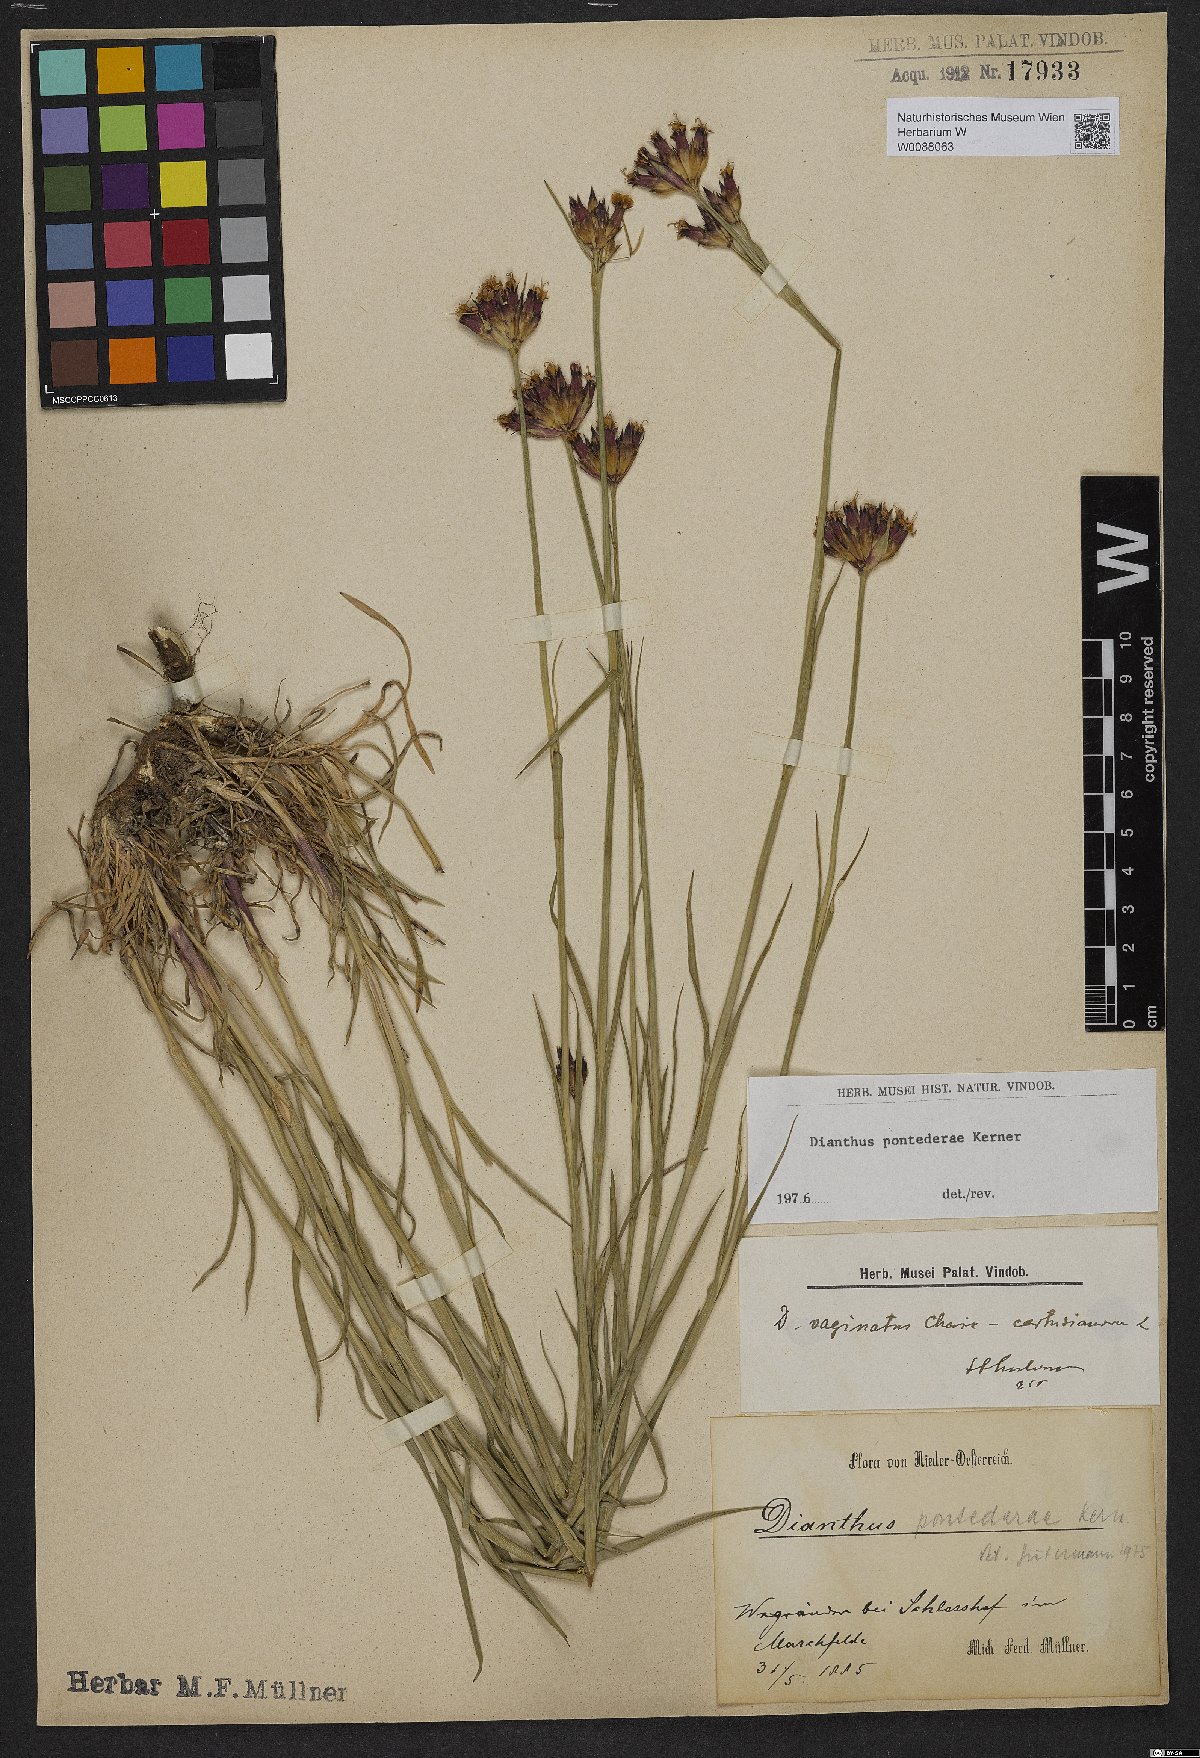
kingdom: Plantae
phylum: Tracheophyta
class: Magnoliopsida
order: Caryophyllales
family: Caryophyllaceae
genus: Dianthus
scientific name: Dianthus pontederae
